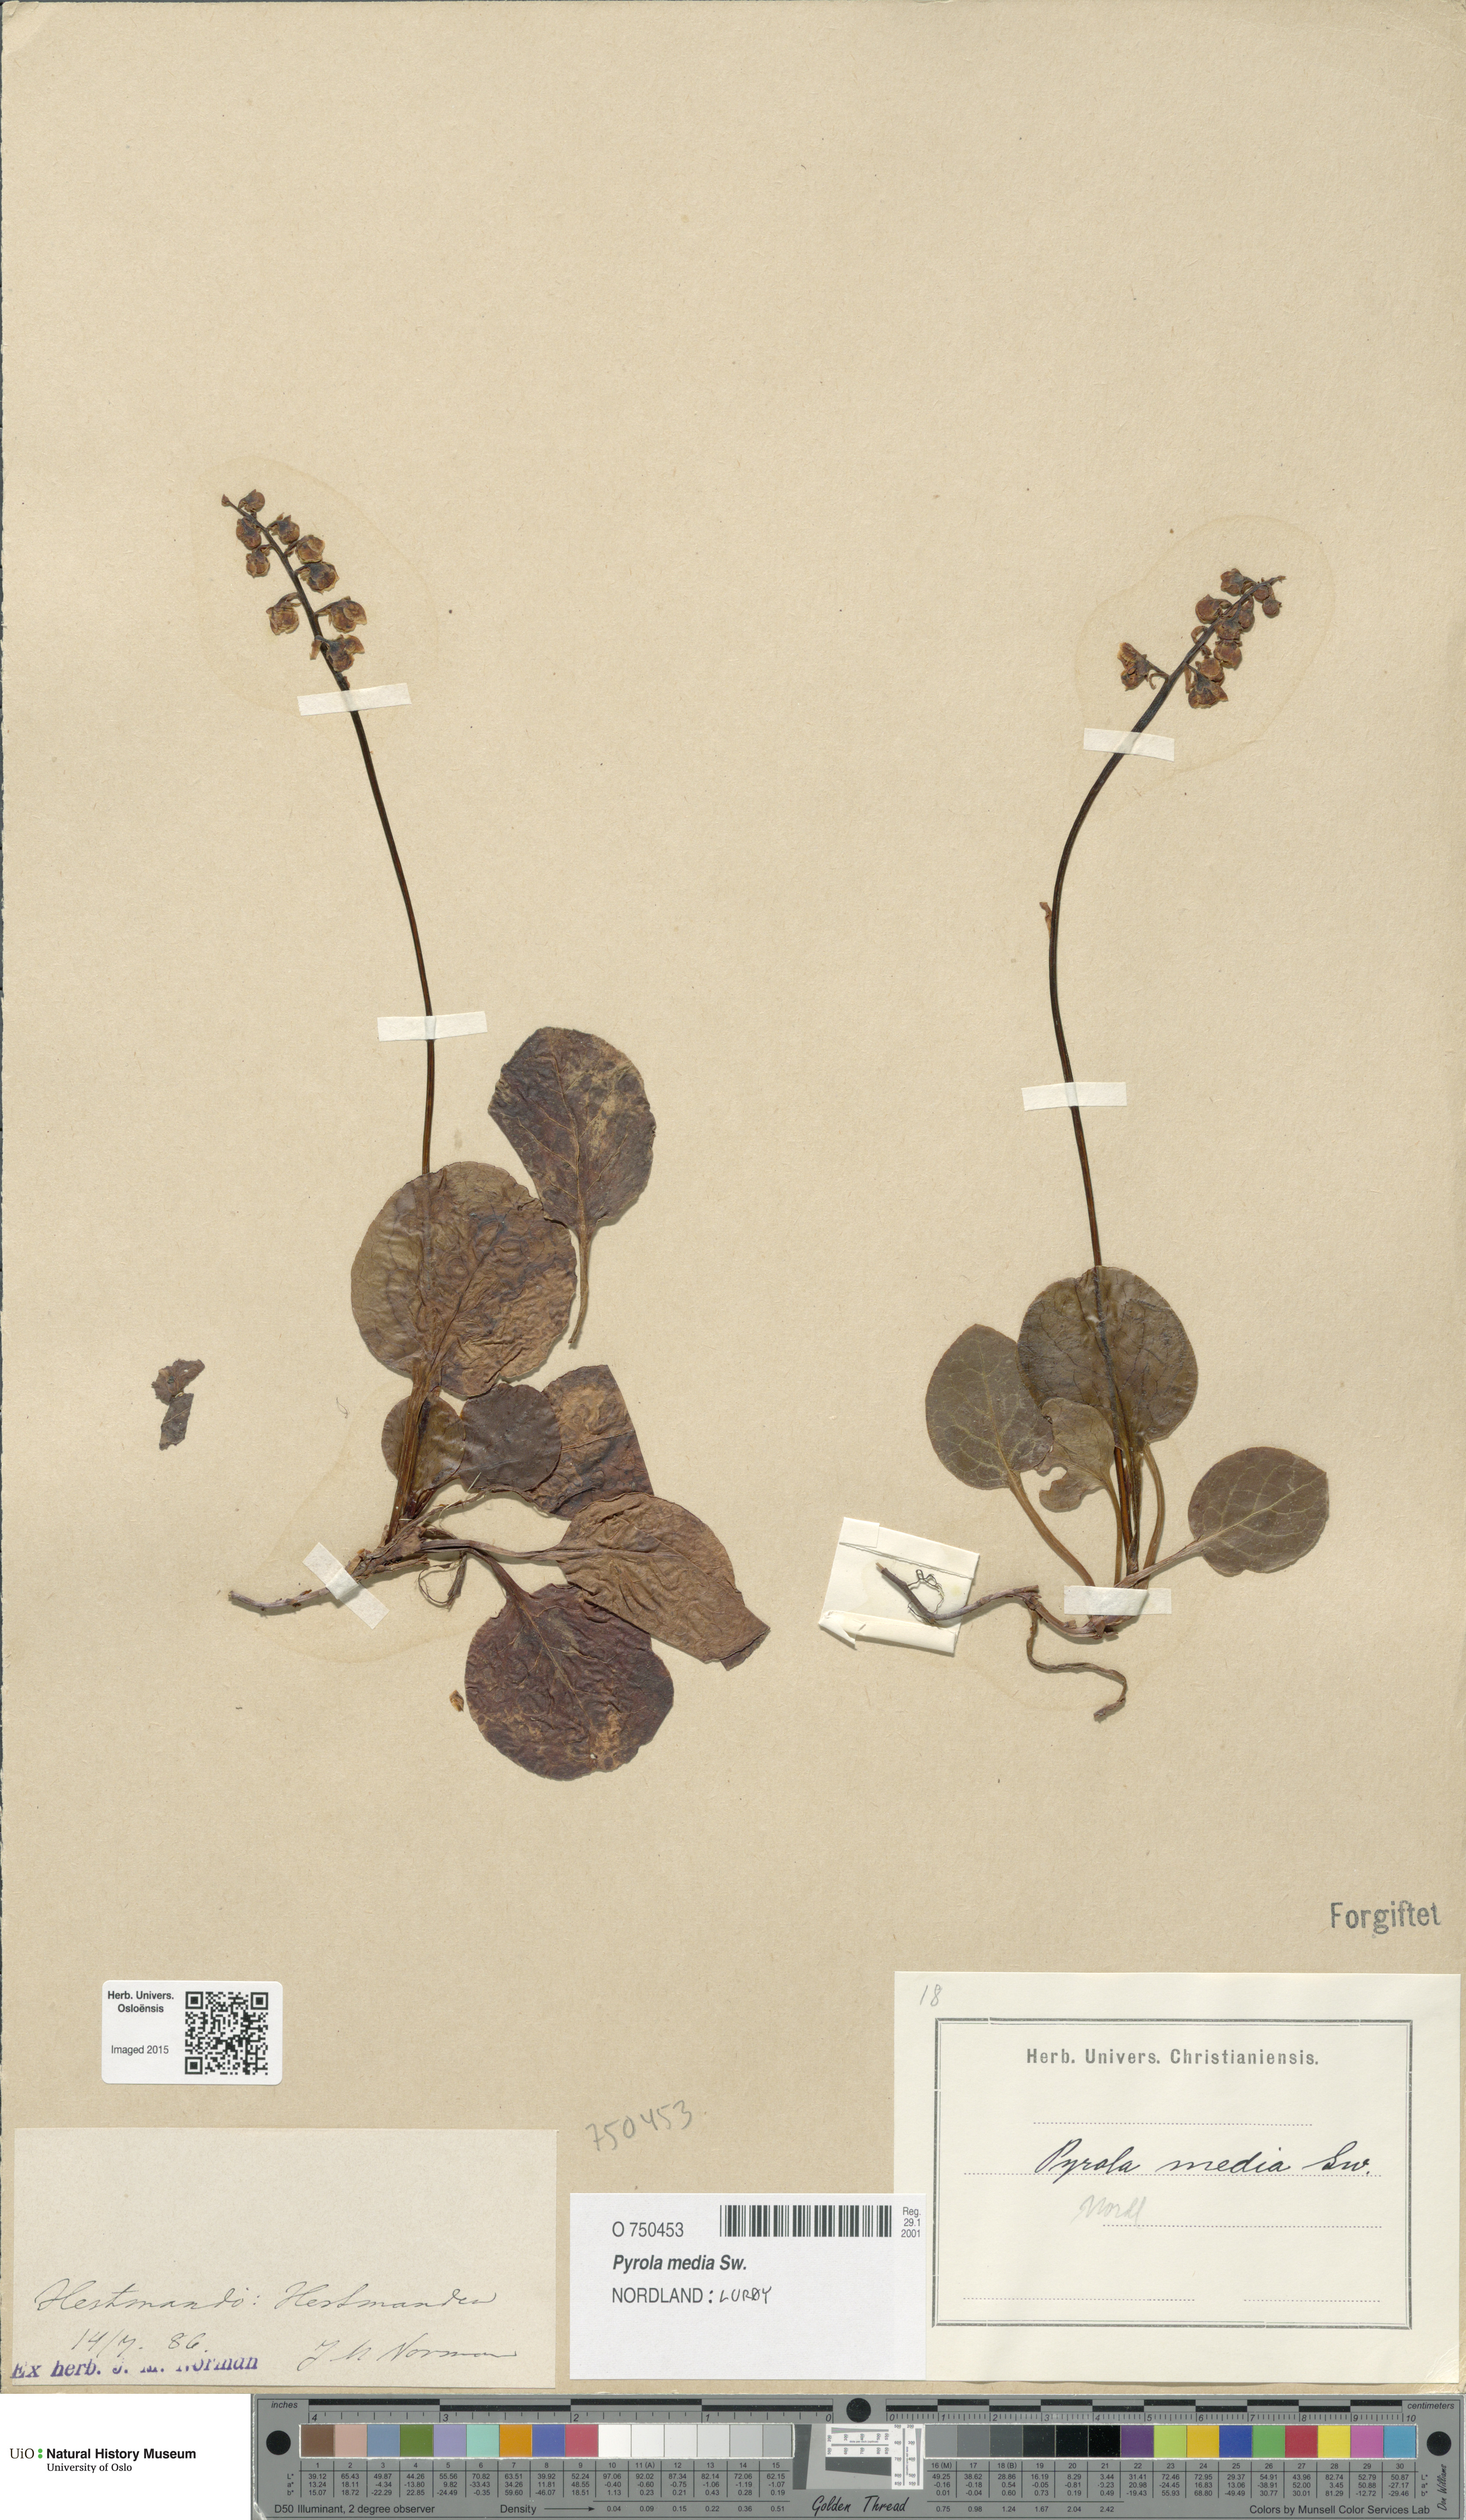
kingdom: Plantae
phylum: Tracheophyta
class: Magnoliopsida
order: Ericales
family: Ericaceae
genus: Pyrola
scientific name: Pyrola media
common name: Intermediate wintergreen
